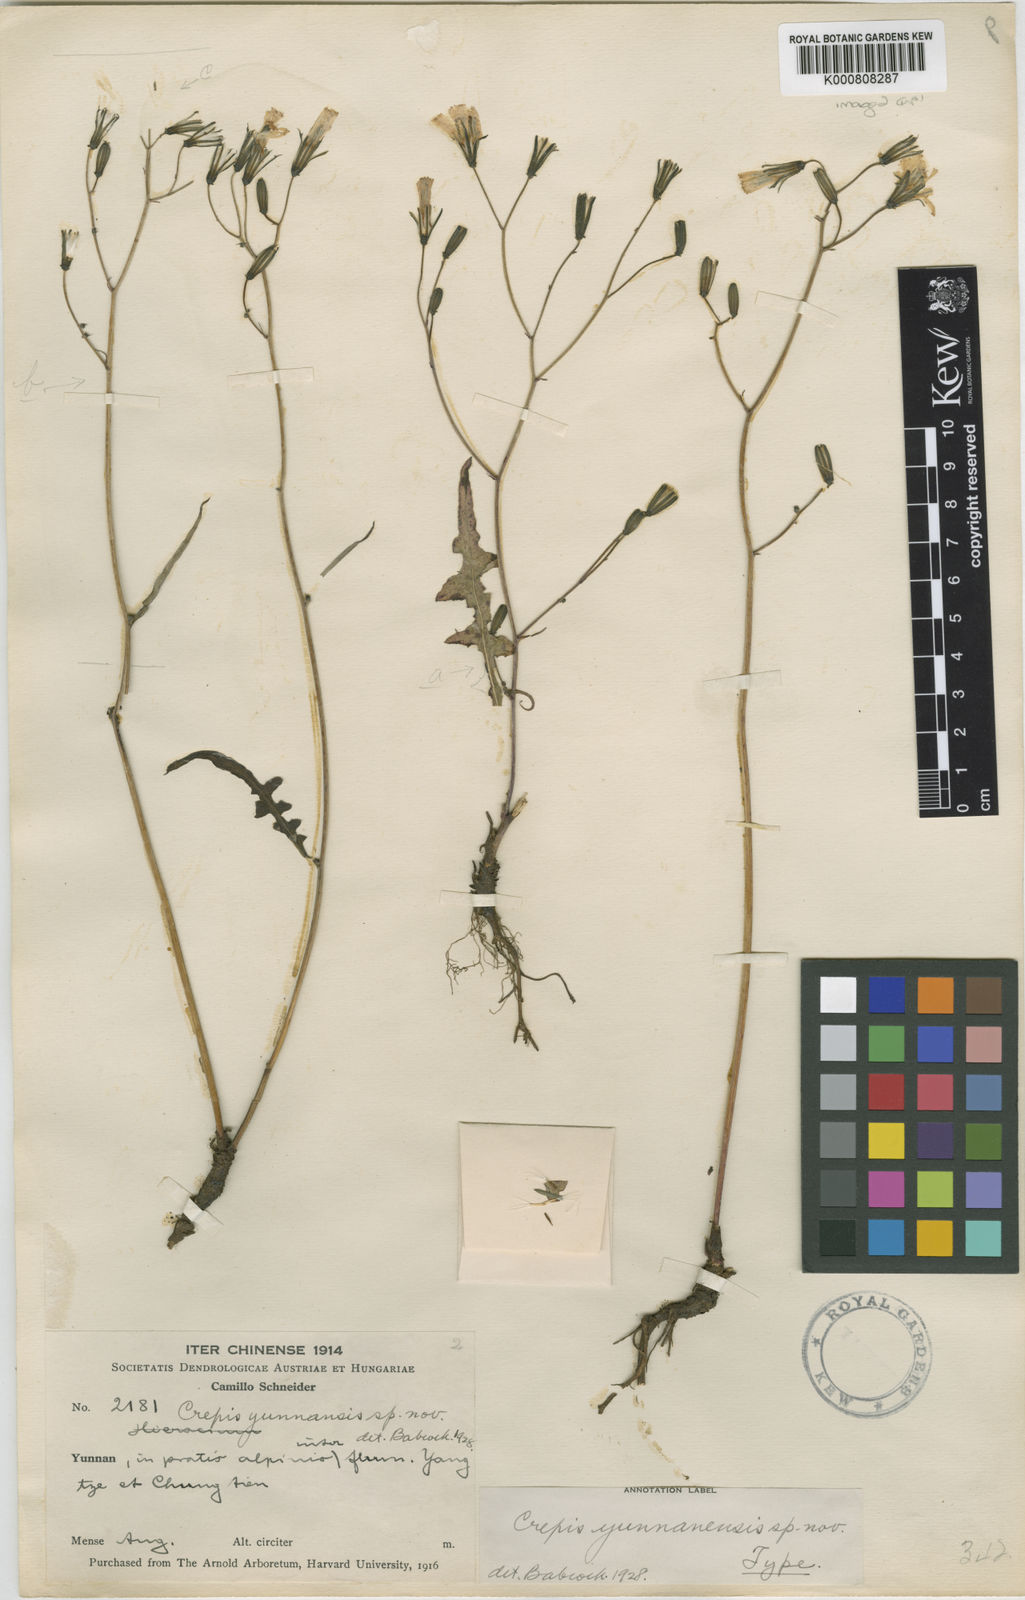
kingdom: Plantae
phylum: Tracheophyta
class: Magnoliopsida
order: Asterales
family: Asteraceae
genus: Youngia
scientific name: Youngia paleacea
